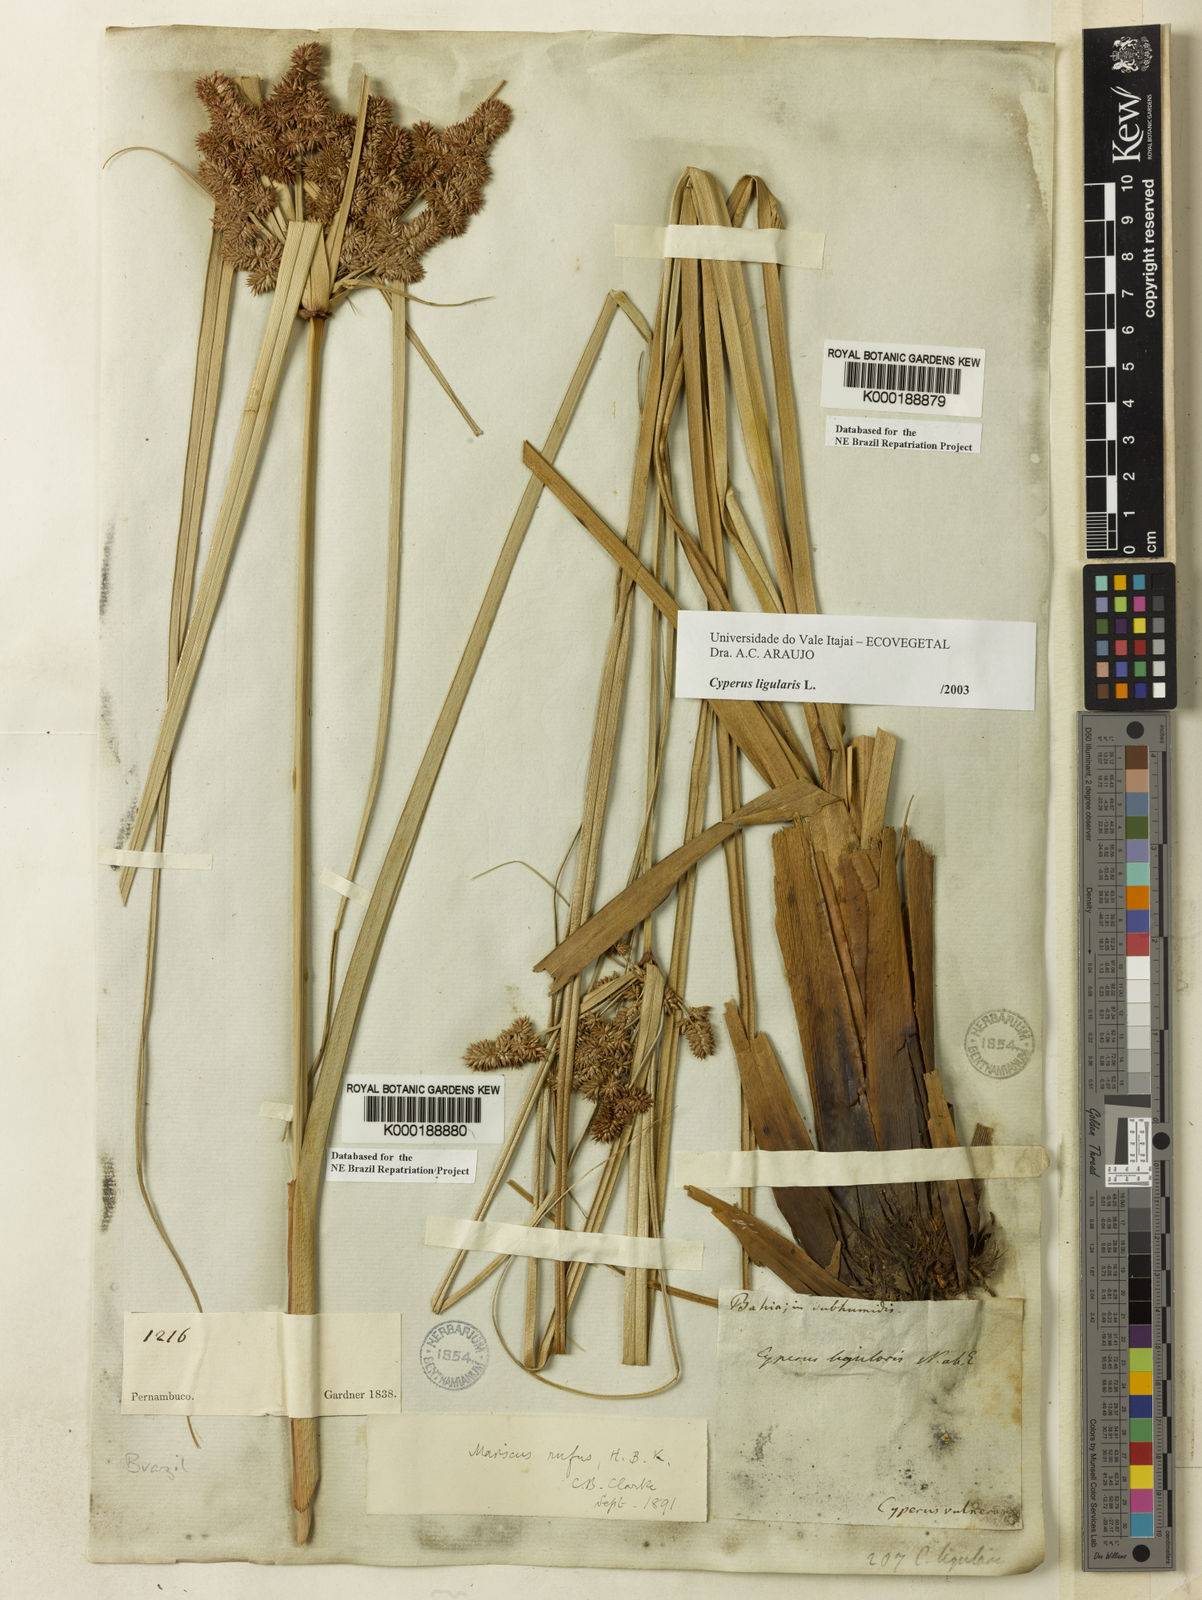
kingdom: Plantae
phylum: Tracheophyta
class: Liliopsida
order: Poales
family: Cyperaceae
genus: Cyperus
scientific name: Cyperus ligularis
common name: Swamp flat sedge
